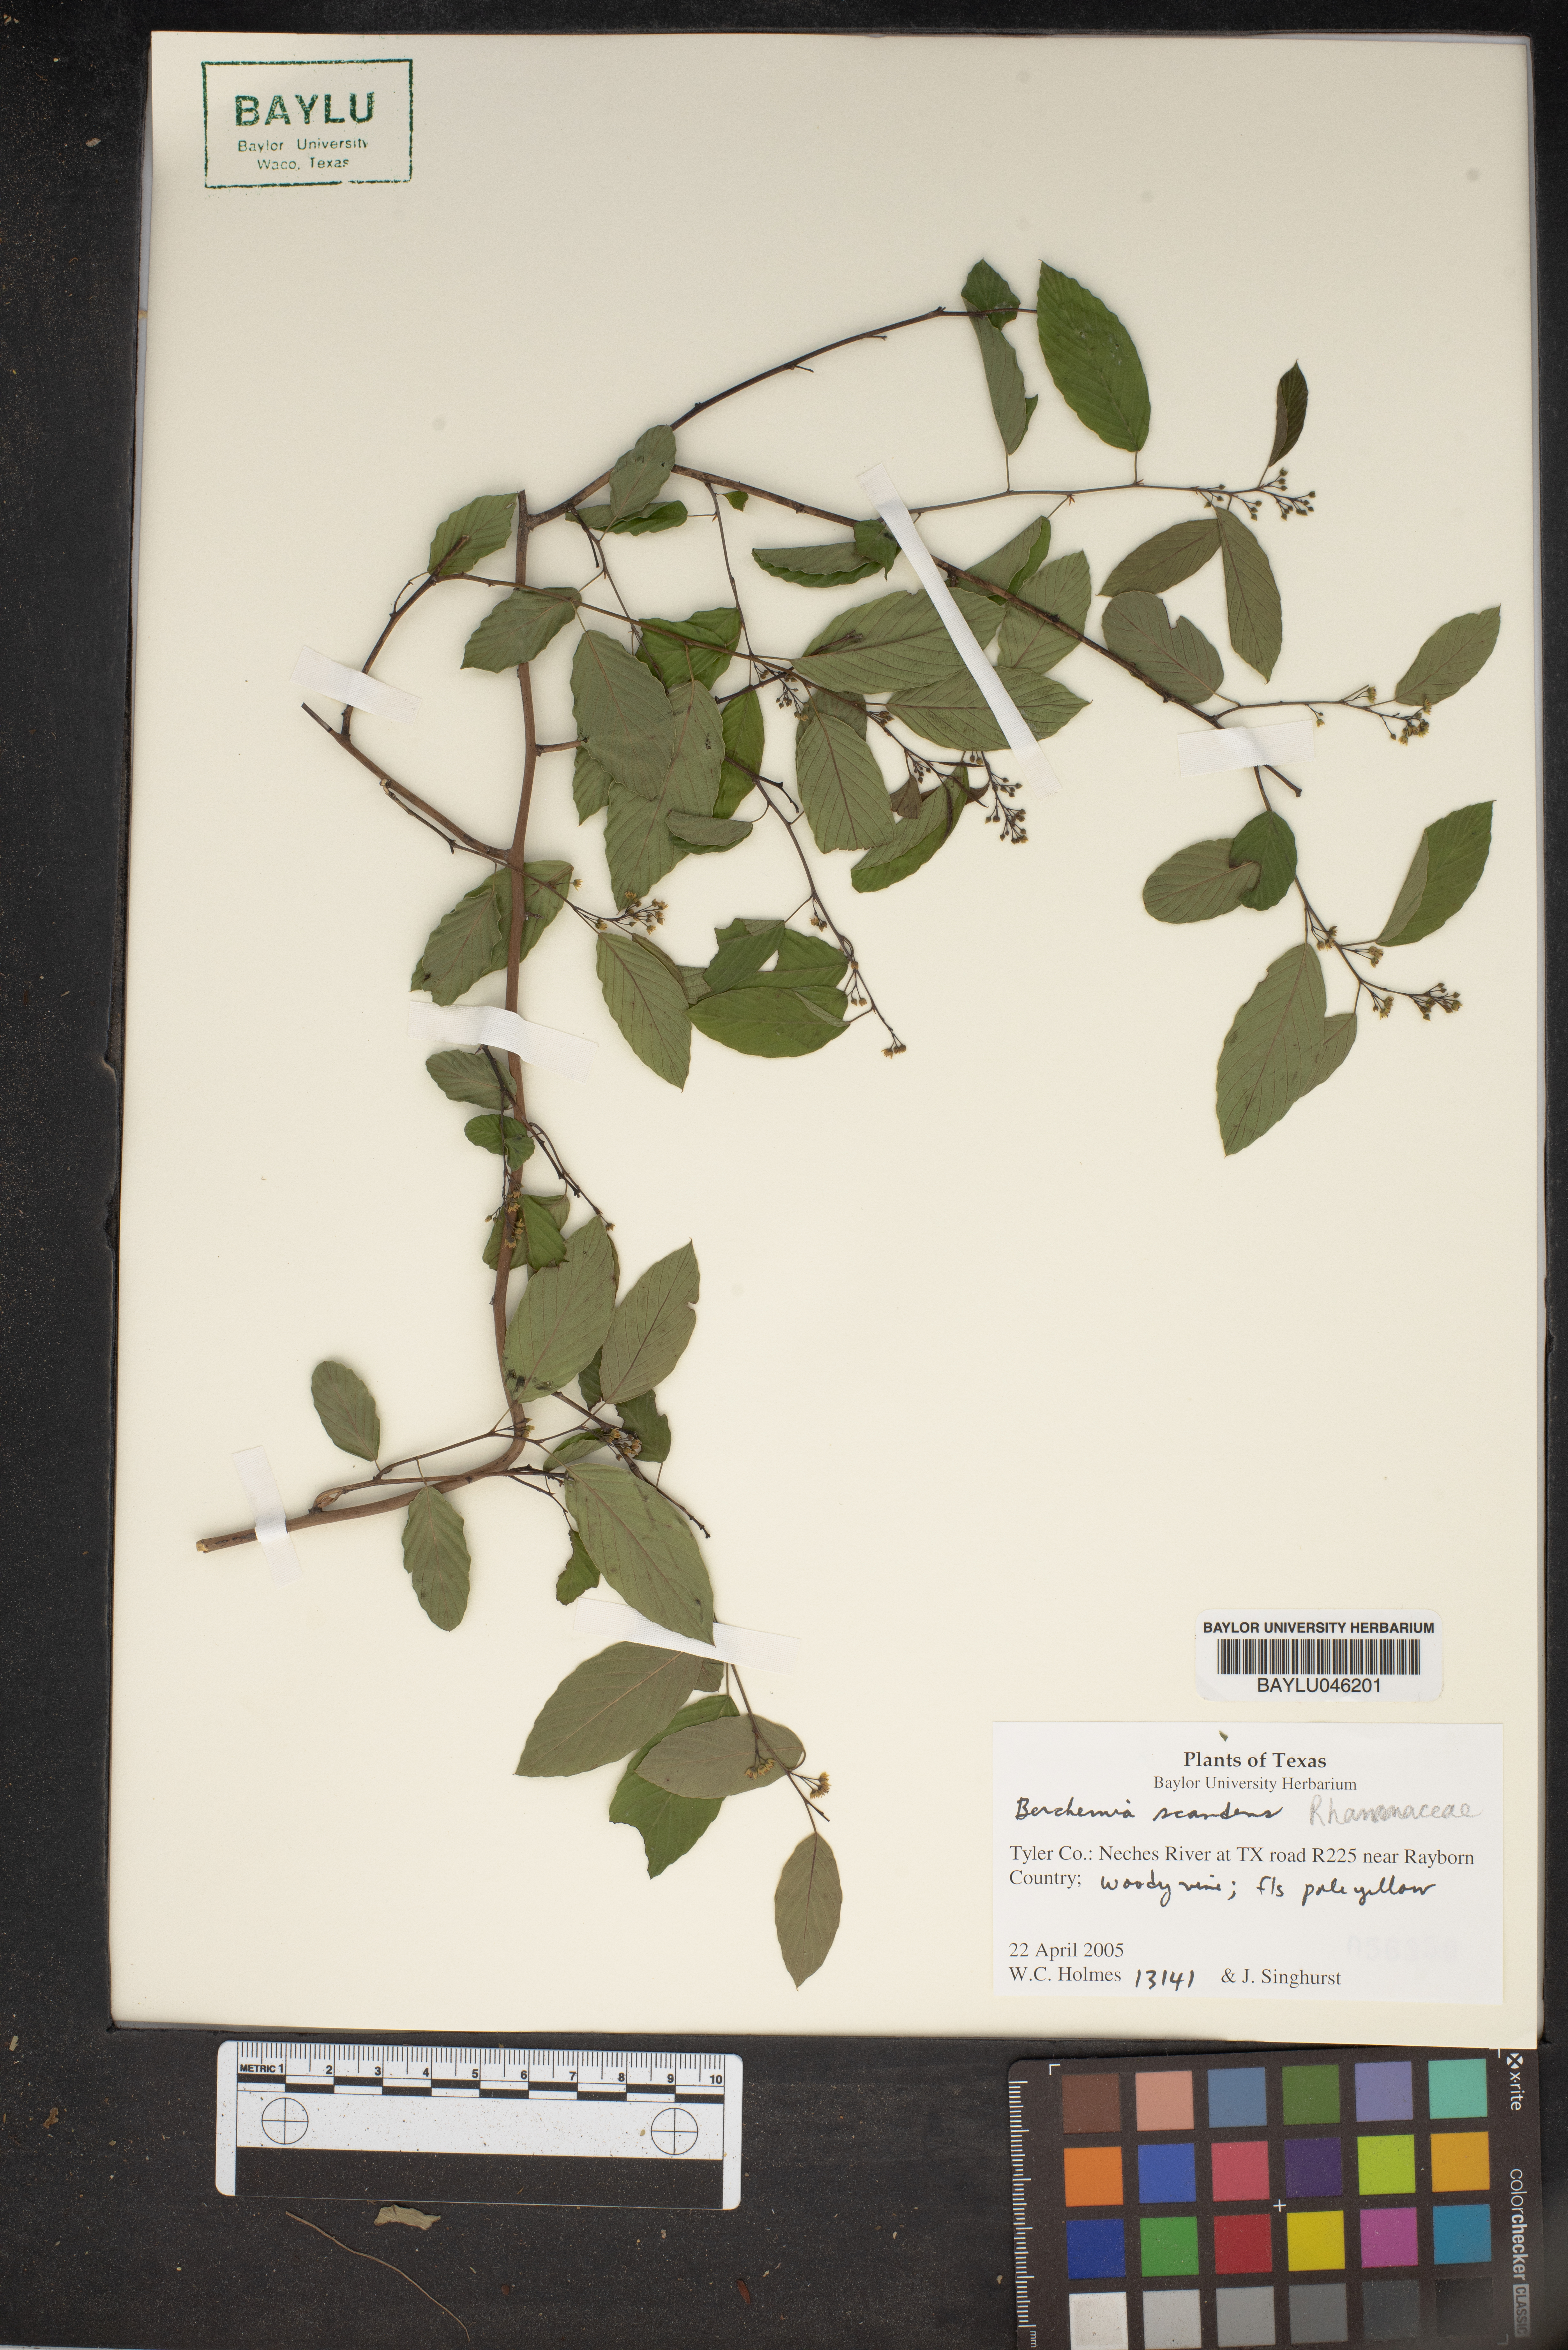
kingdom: Plantae
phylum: Tracheophyta
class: Magnoliopsida
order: Rosales
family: Rhamnaceae
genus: Berchemia
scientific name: Berchemia scandens
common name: Supplejack
